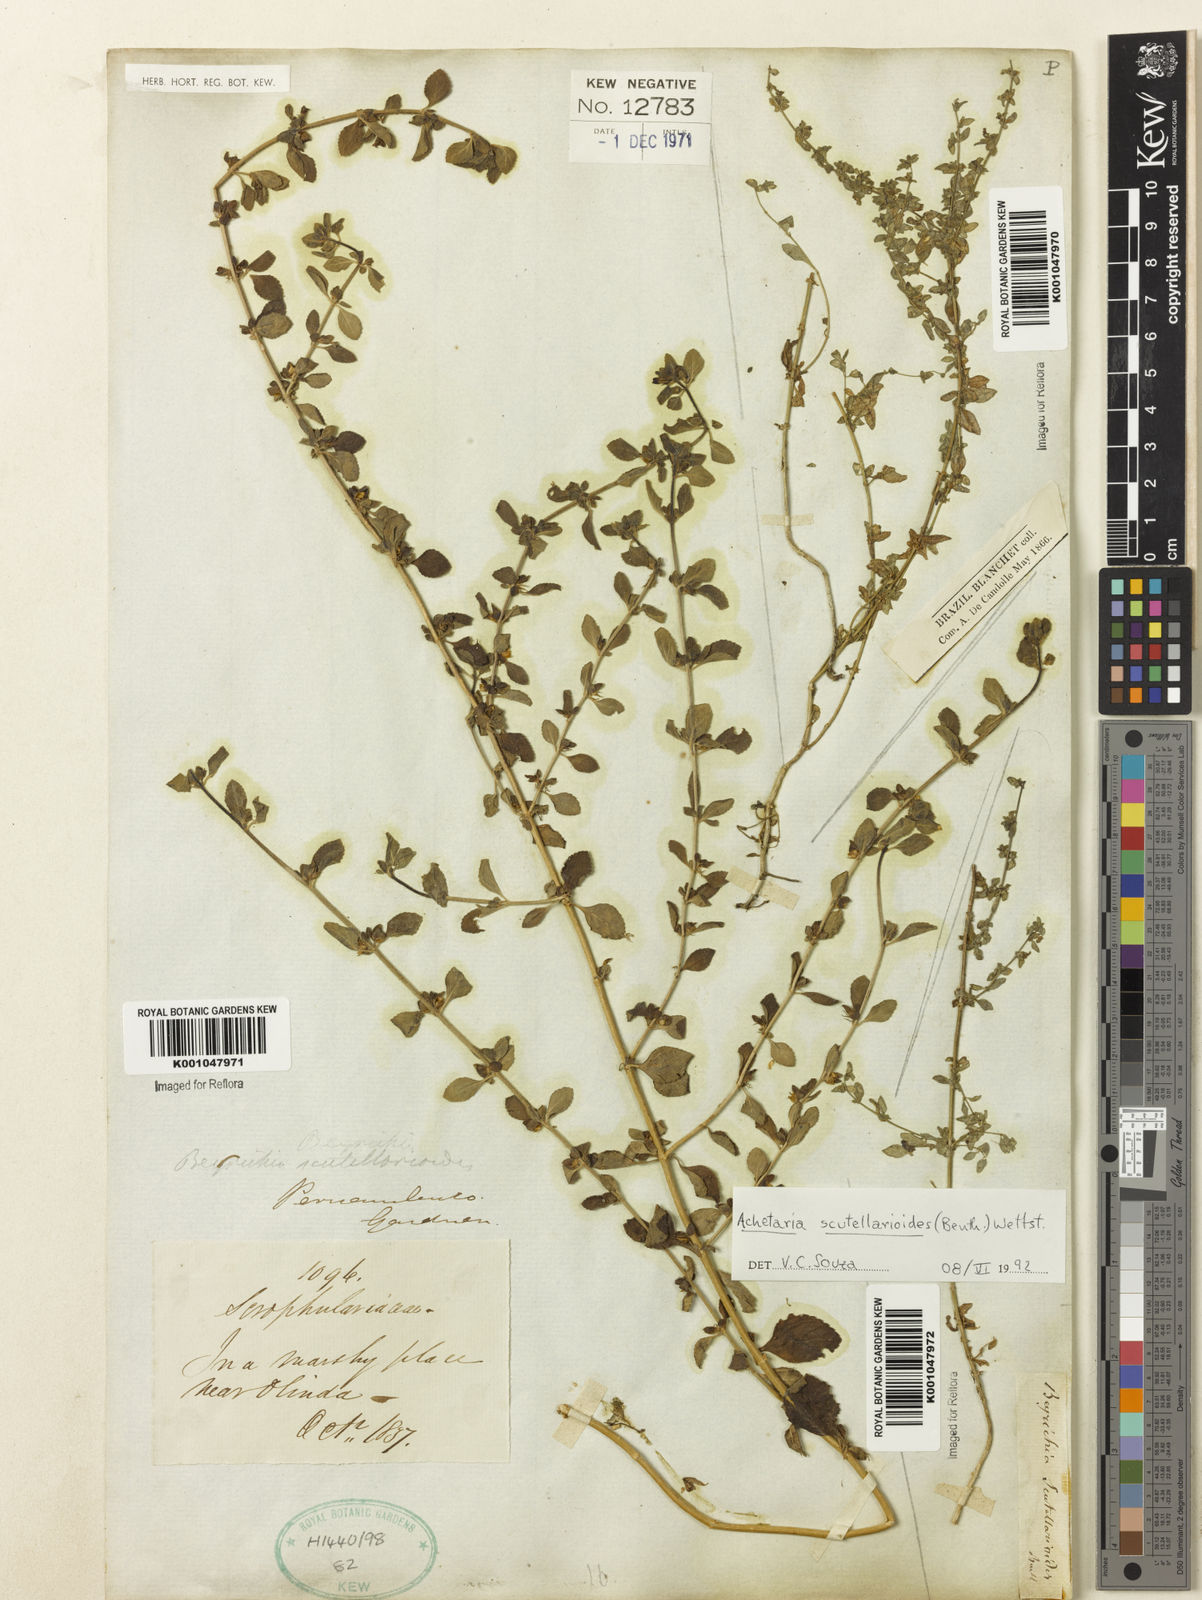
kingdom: Plantae
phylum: Tracheophyta
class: Magnoliopsida
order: Lamiales
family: Plantaginaceae
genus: Matourea
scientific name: Matourea scutellarioides
